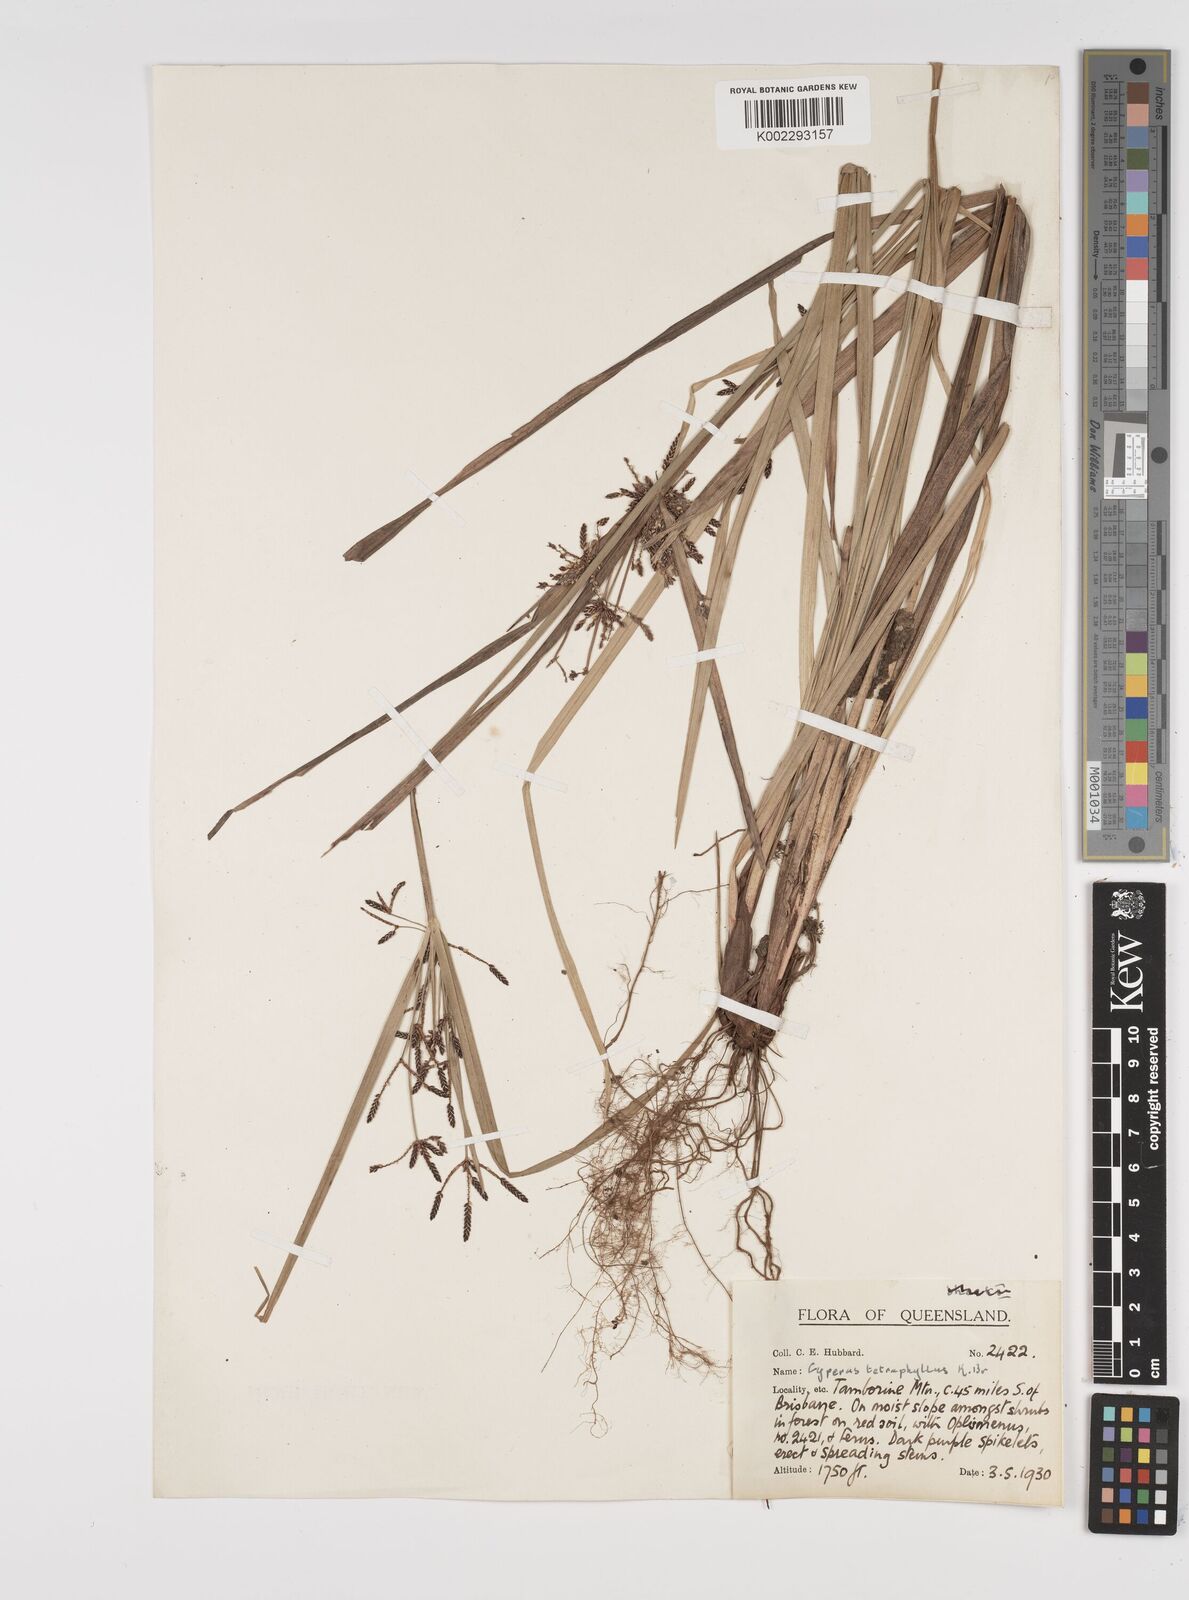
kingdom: Plantae
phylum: Tracheophyta
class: Liliopsida
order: Poales
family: Cyperaceae
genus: Cyperus
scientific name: Cyperus tetraphyllus
